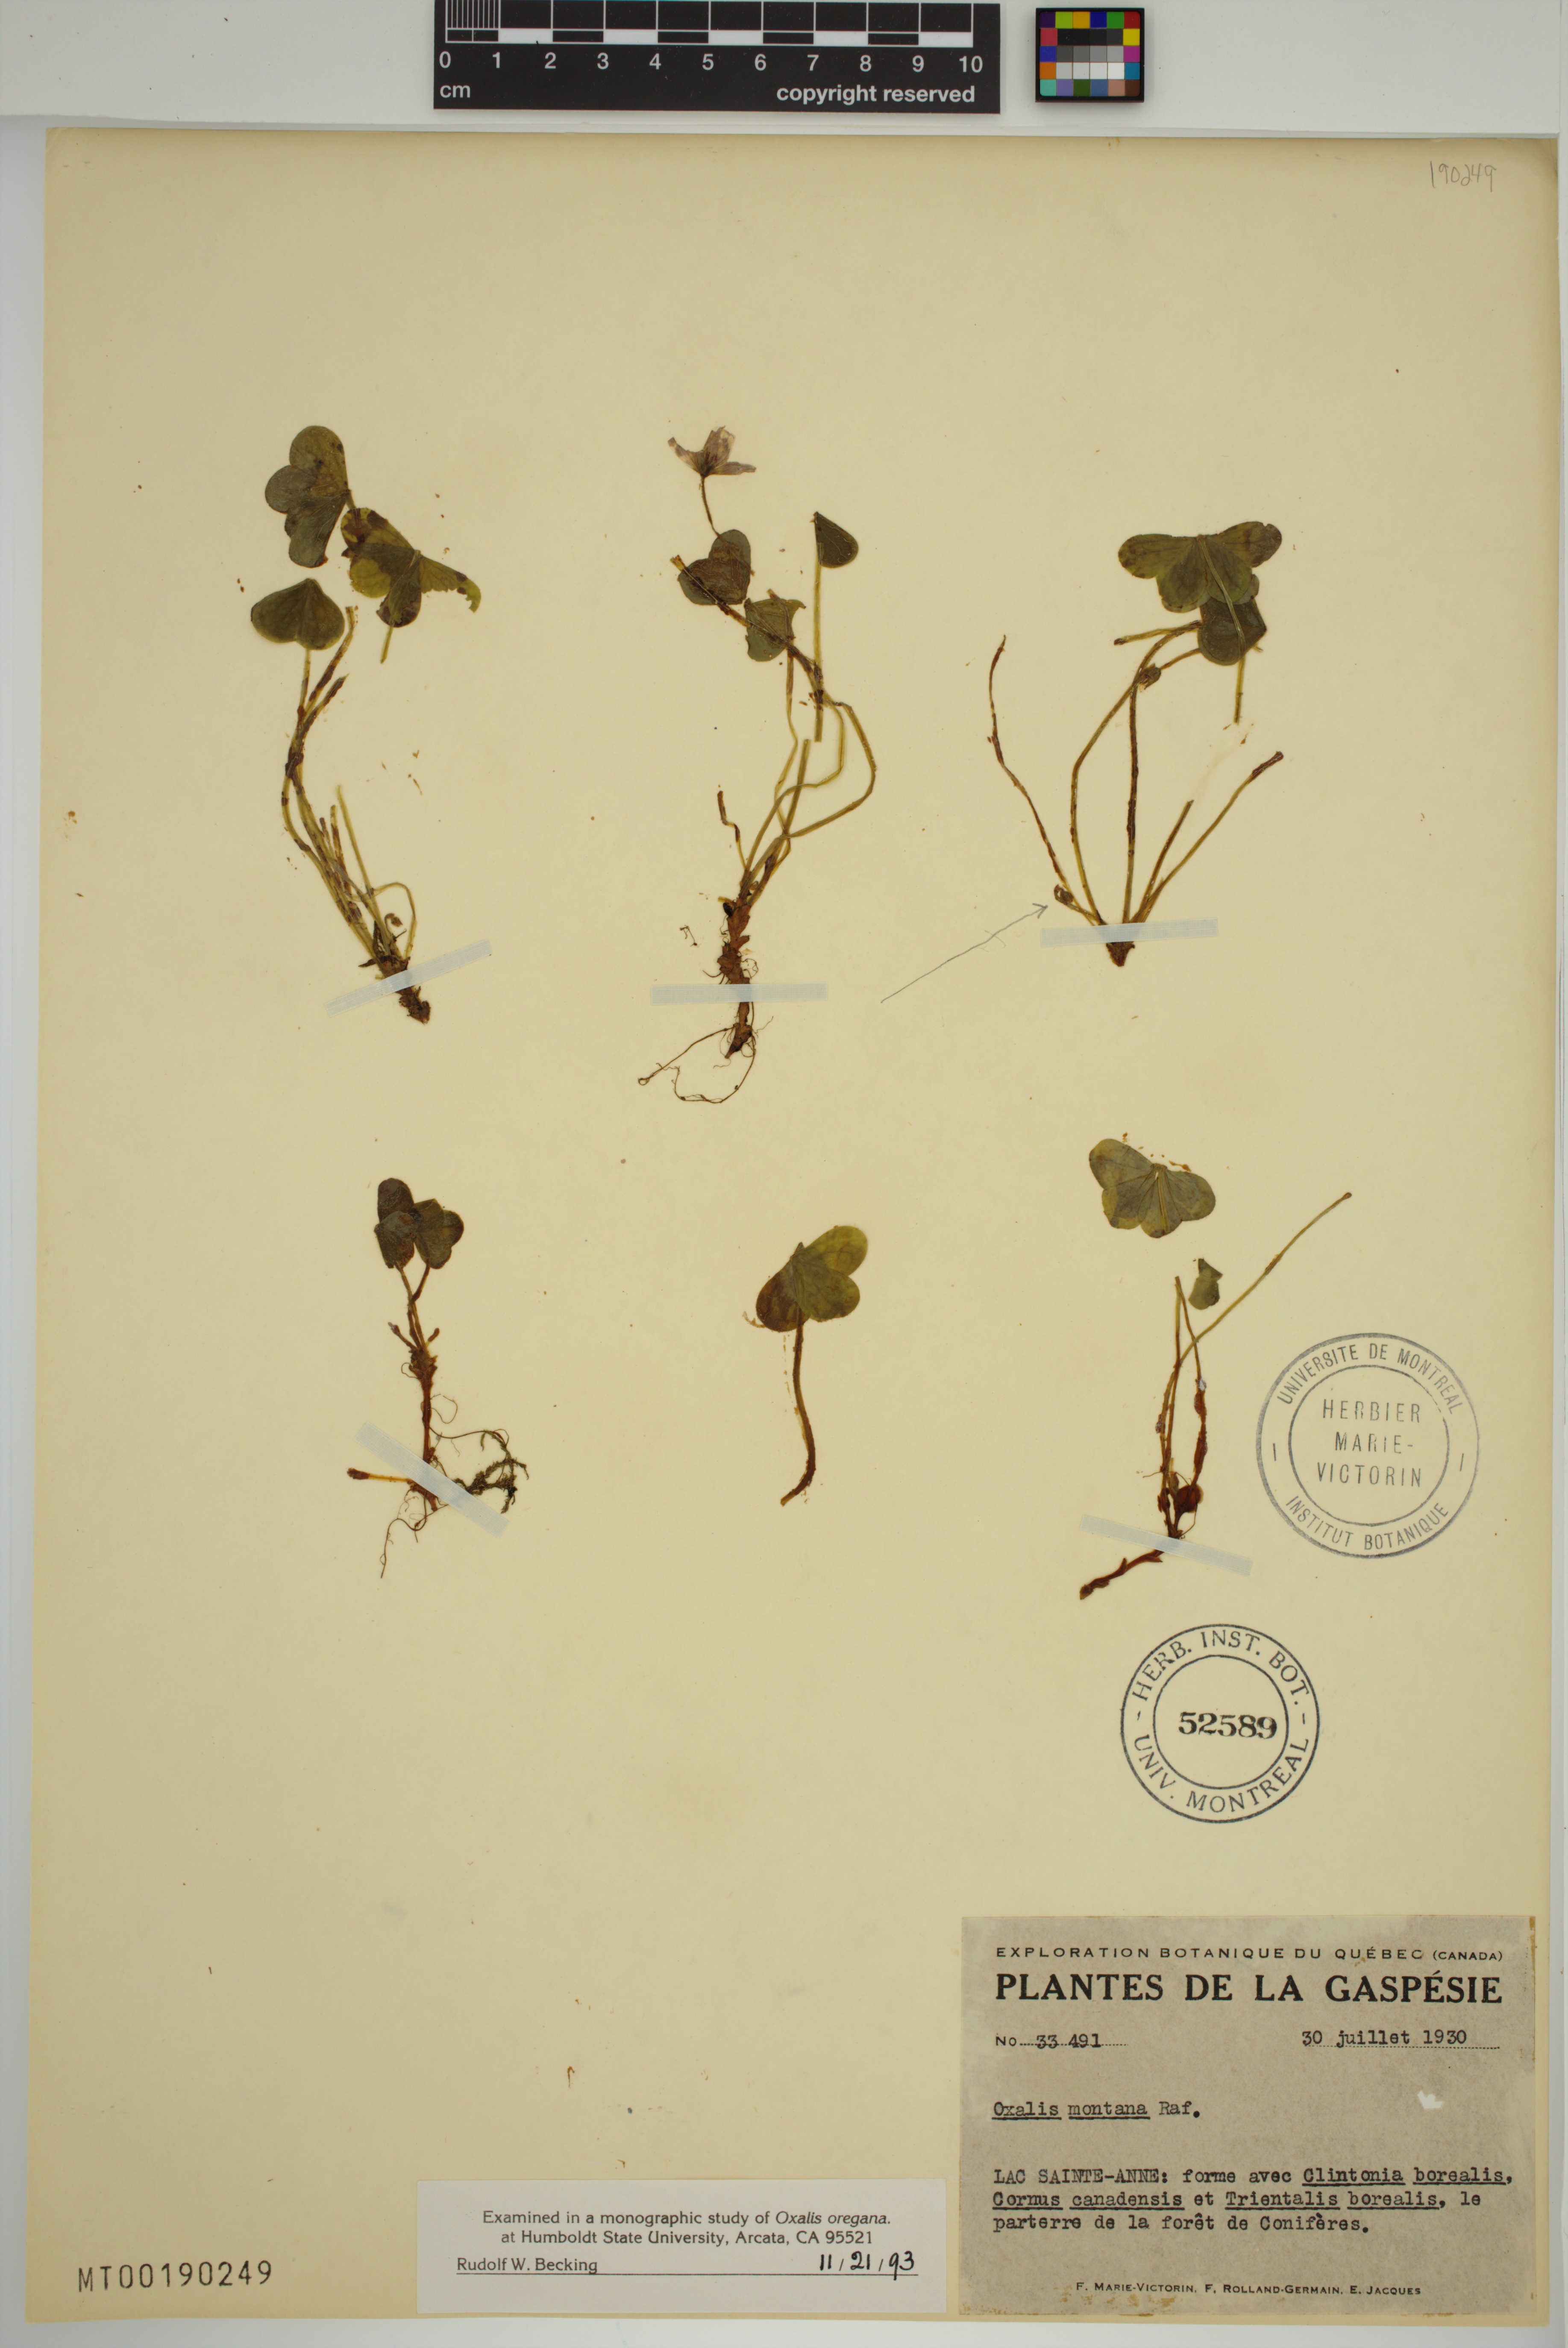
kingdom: Plantae
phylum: Tracheophyta
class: Magnoliopsida
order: Oxalidales
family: Oxalidaceae
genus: Oxalis
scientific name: Oxalis montana
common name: American wood-sorrel
